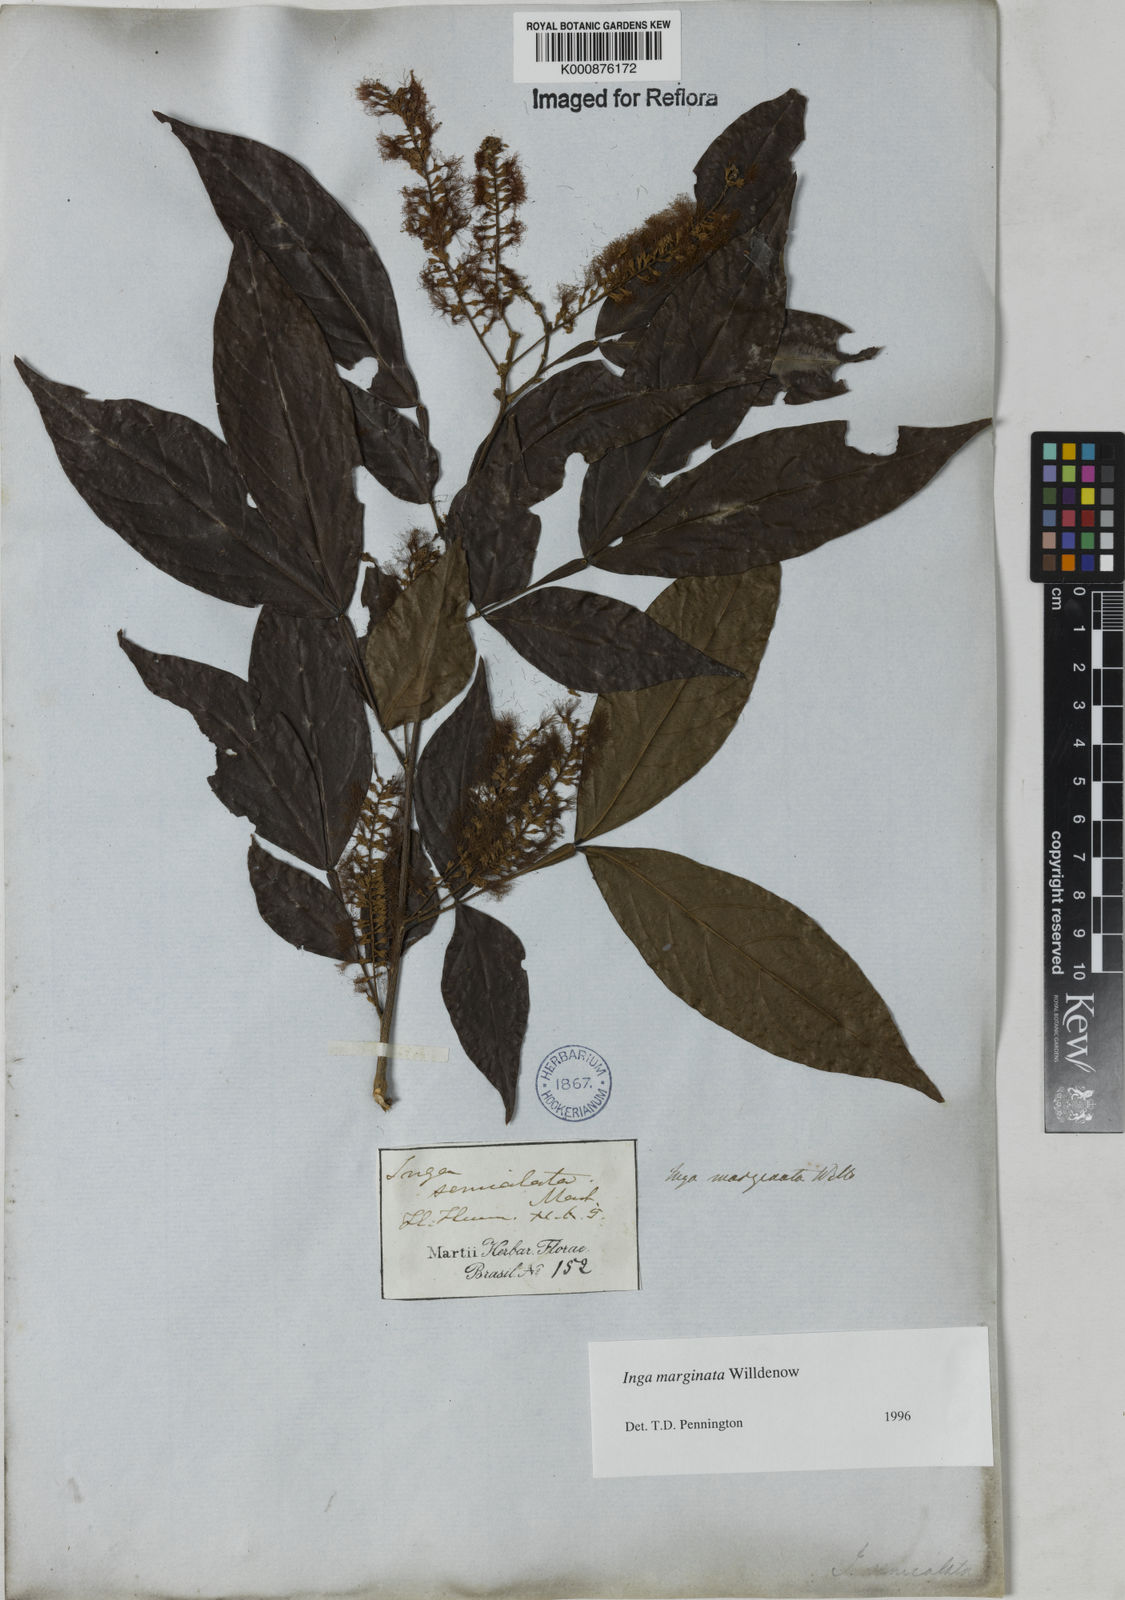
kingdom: Plantae
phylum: Tracheophyta
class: Magnoliopsida
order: Fabales
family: Fabaceae
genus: Inga
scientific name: Inga marginata
